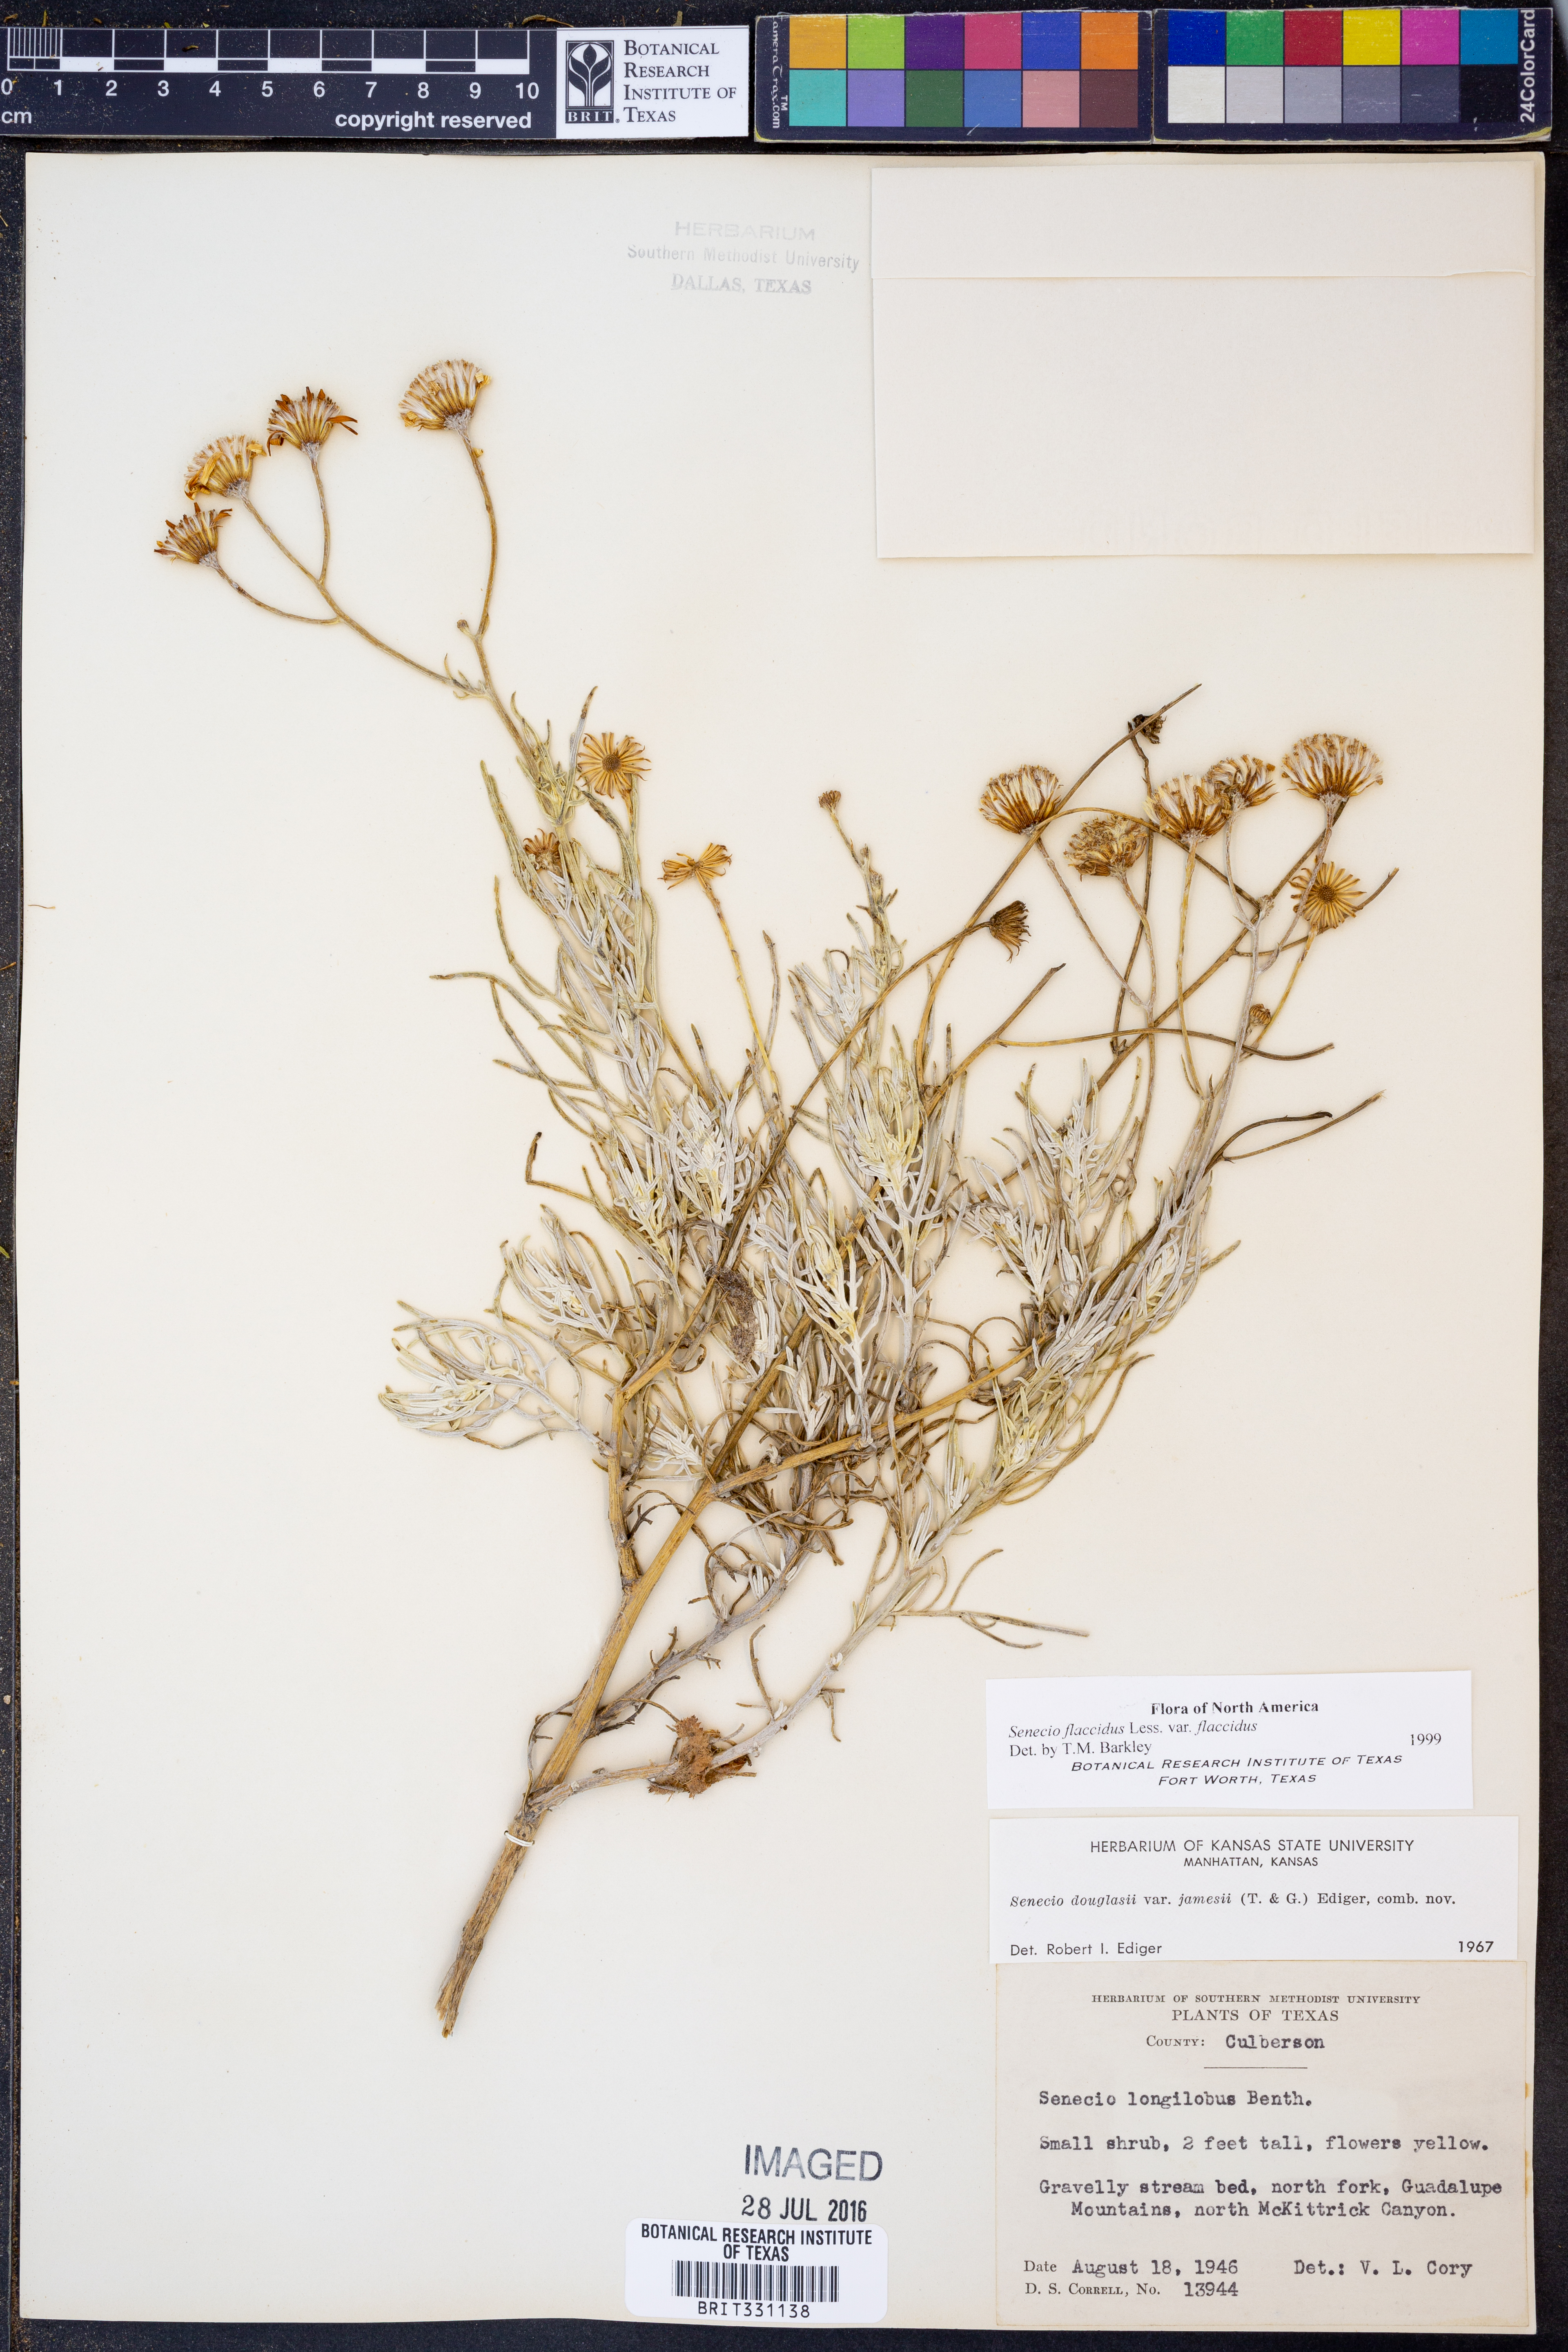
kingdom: Plantae
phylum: Tracheophyta
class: Magnoliopsida
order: Asterales
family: Asteraceae
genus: Senecio
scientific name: Senecio flaccidus
